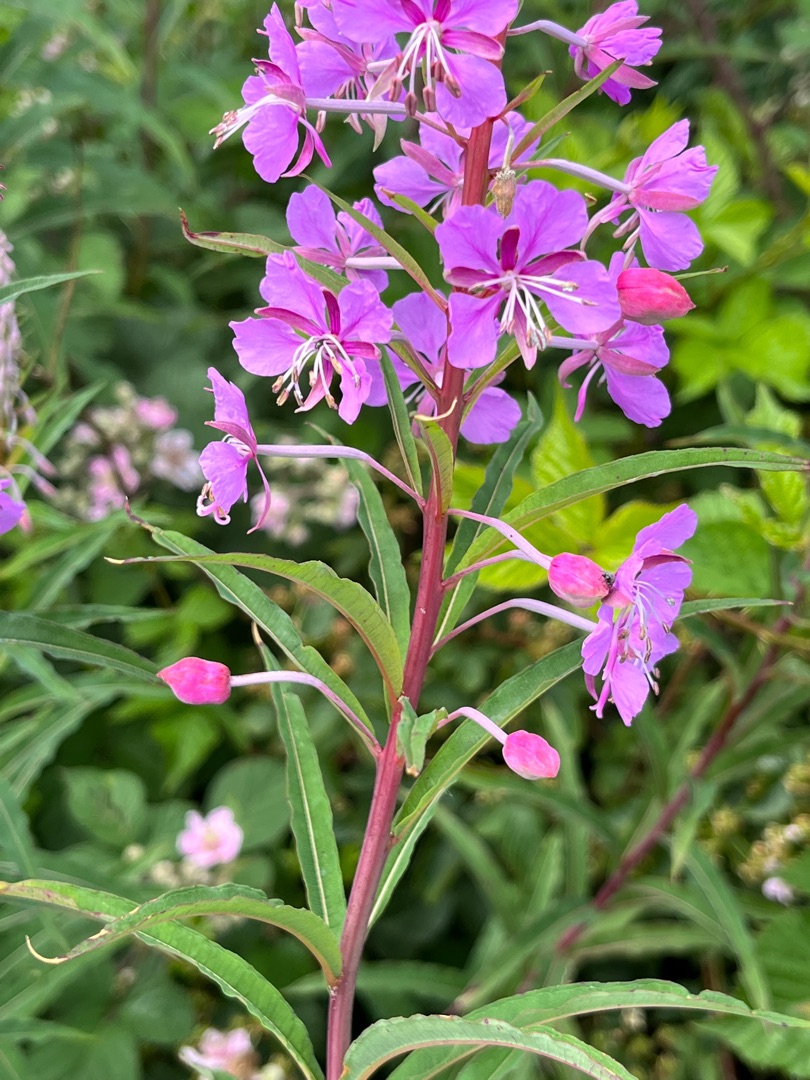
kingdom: Animalia
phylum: Arthropoda
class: Insecta
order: Diptera
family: Cecidomyiidae
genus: Dasineura
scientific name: Dasineura epilobii
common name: Gederamsblomstgalmyg
